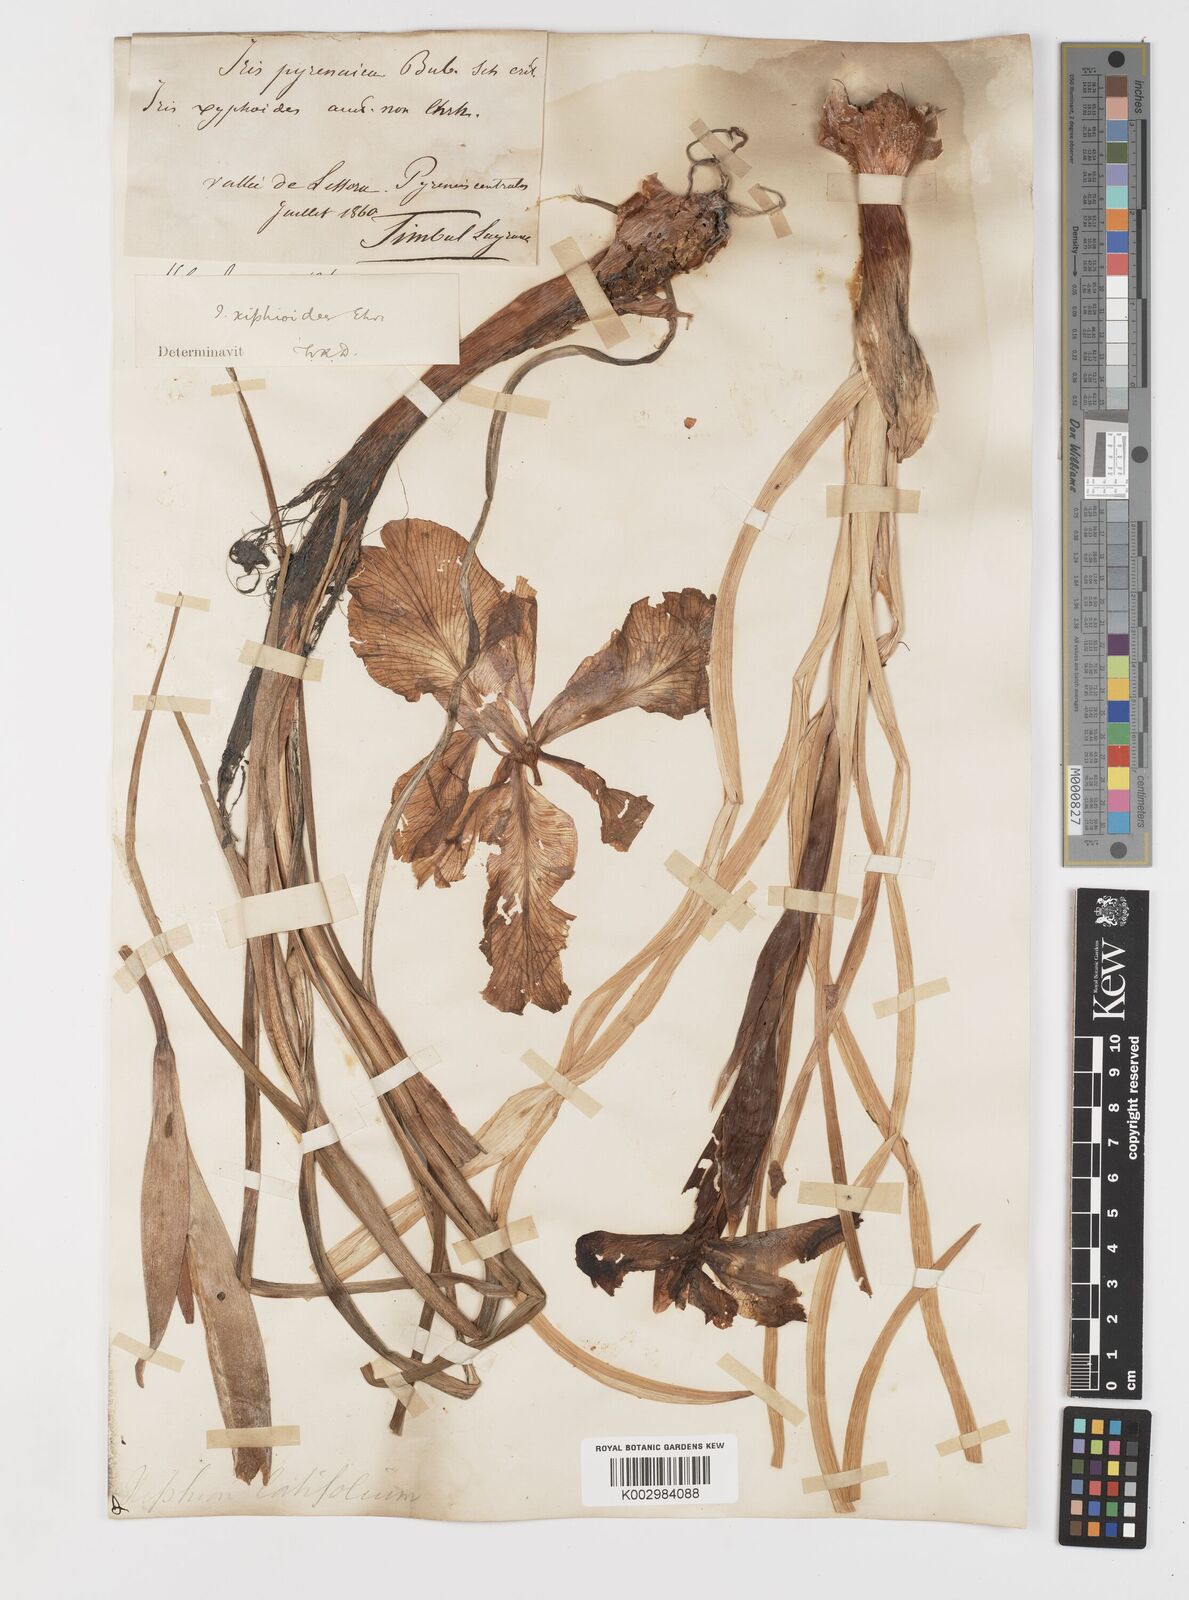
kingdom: Plantae
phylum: Tracheophyta
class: Liliopsida
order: Asparagales
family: Iridaceae
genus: Iris
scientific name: Iris jacquinii
